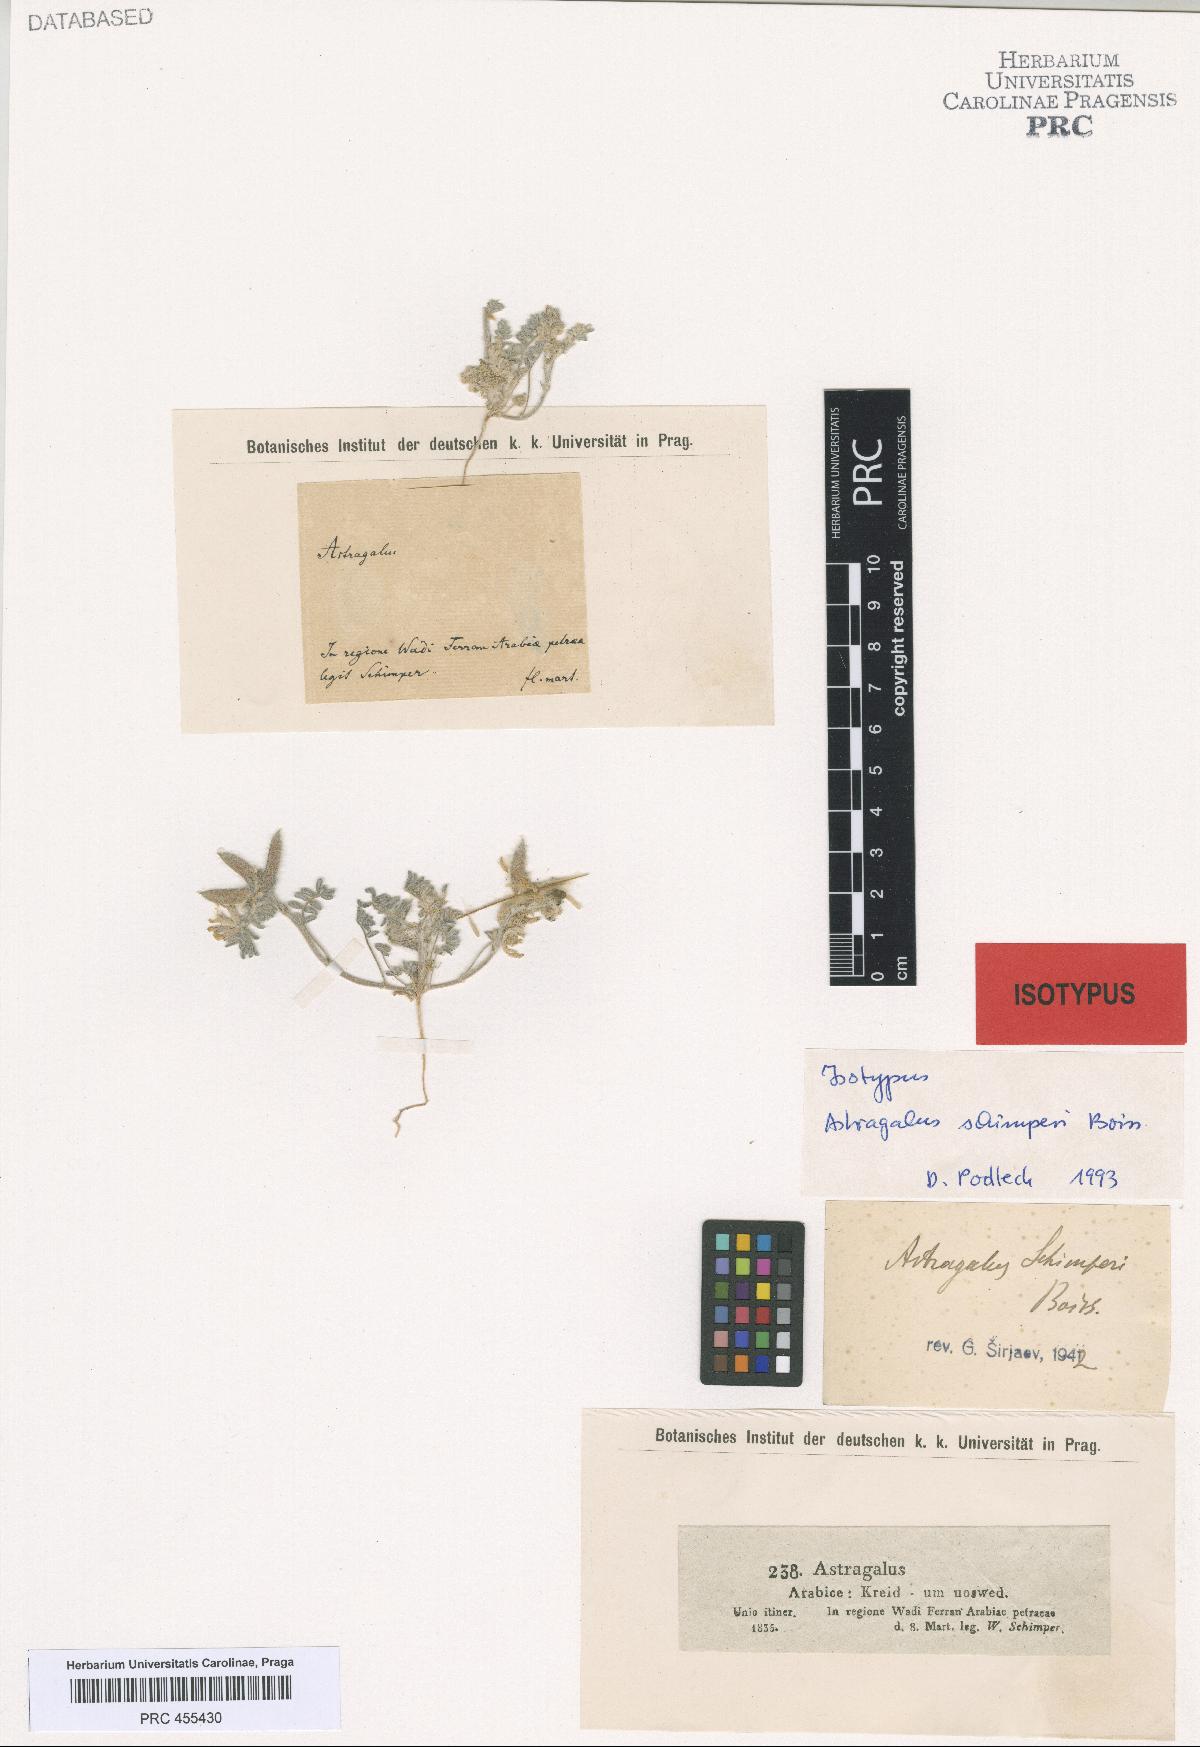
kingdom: Plantae
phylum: Tracheophyta
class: Magnoliopsida
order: Fabales
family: Fabaceae
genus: Astragalus
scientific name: Astragalus schimperi
